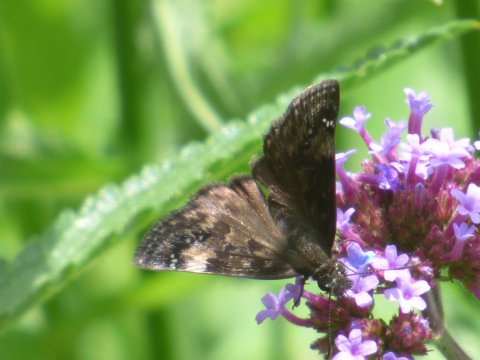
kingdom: Animalia
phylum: Arthropoda
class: Insecta
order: Lepidoptera
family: Hesperiidae
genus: Gesta
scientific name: Gesta
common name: Wild Indigo Duskywing
